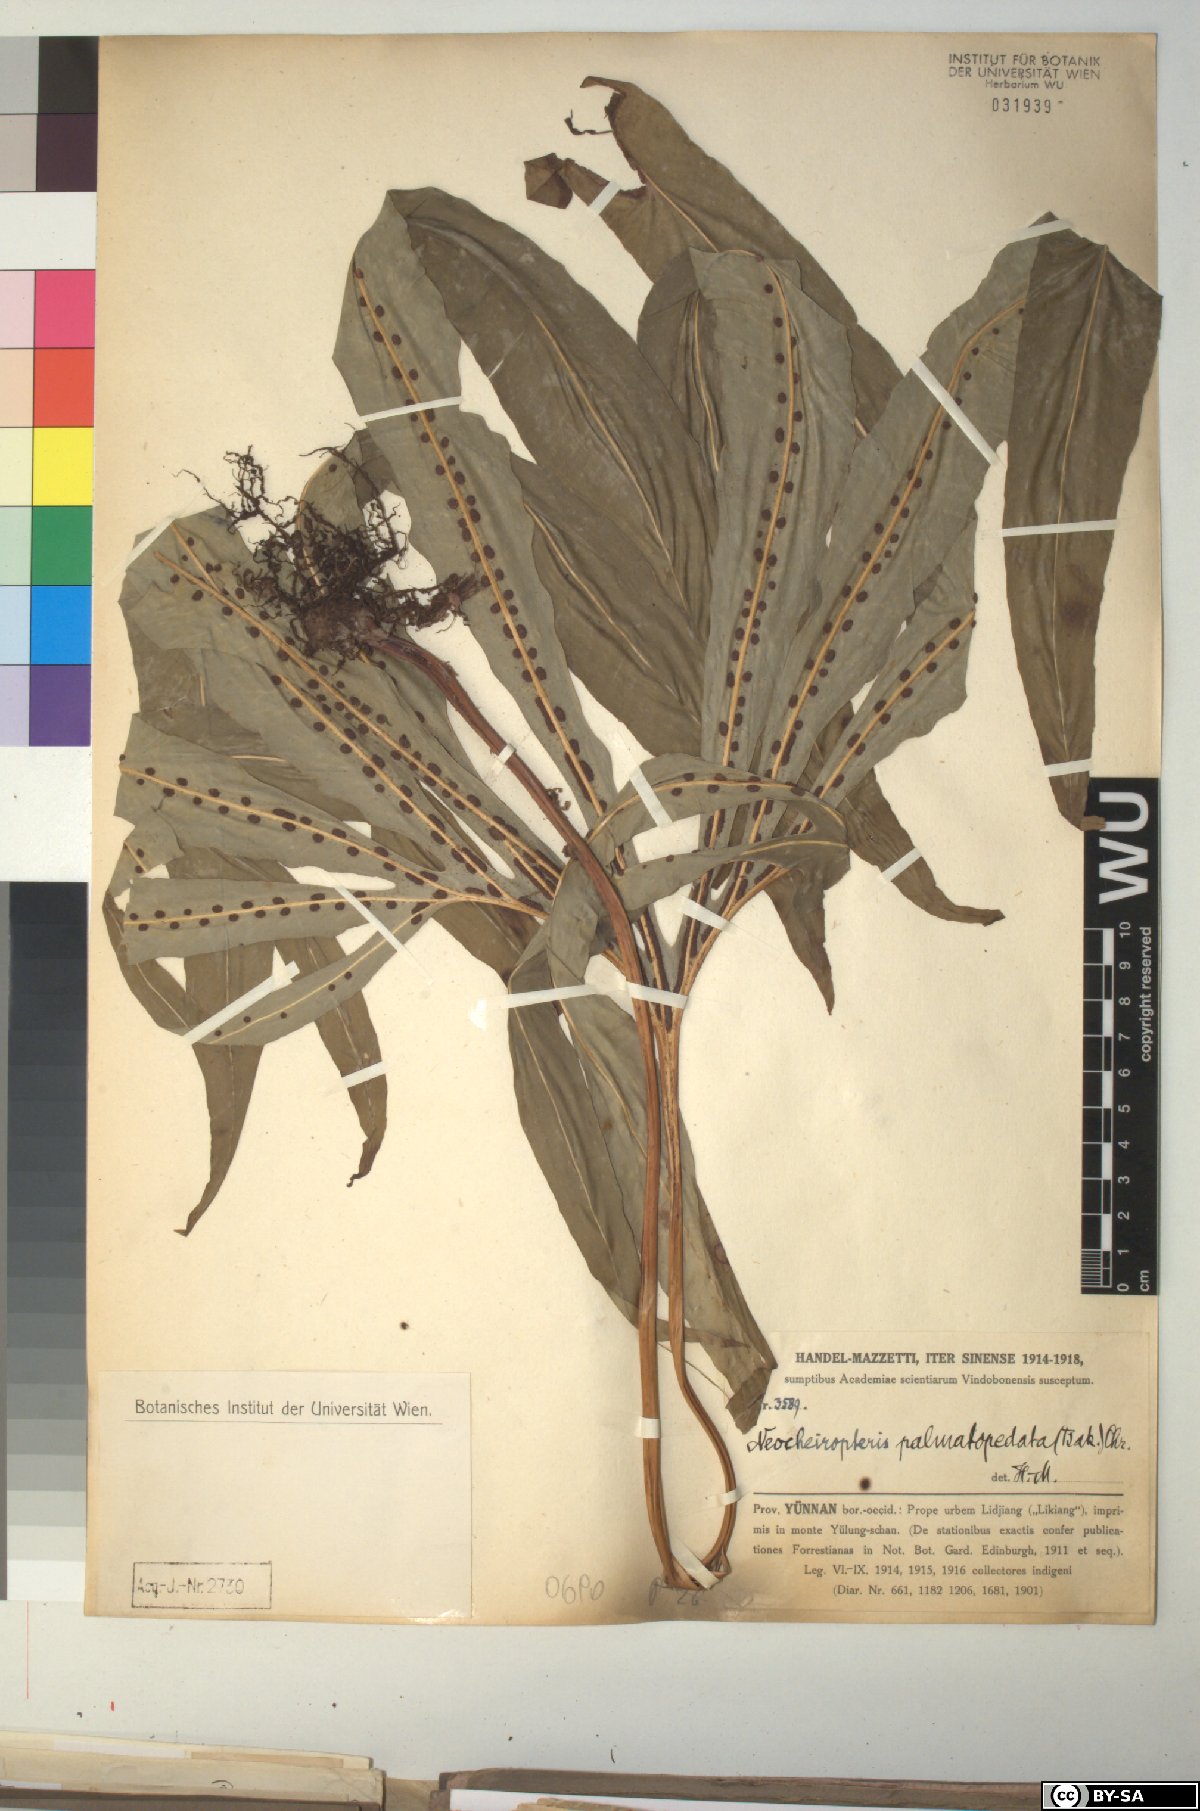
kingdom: Plantae
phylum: Tracheophyta
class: Polypodiopsida
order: Polypodiales
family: Polypodiaceae
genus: Lepisorus
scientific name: Lepisorus palmatopedatus
